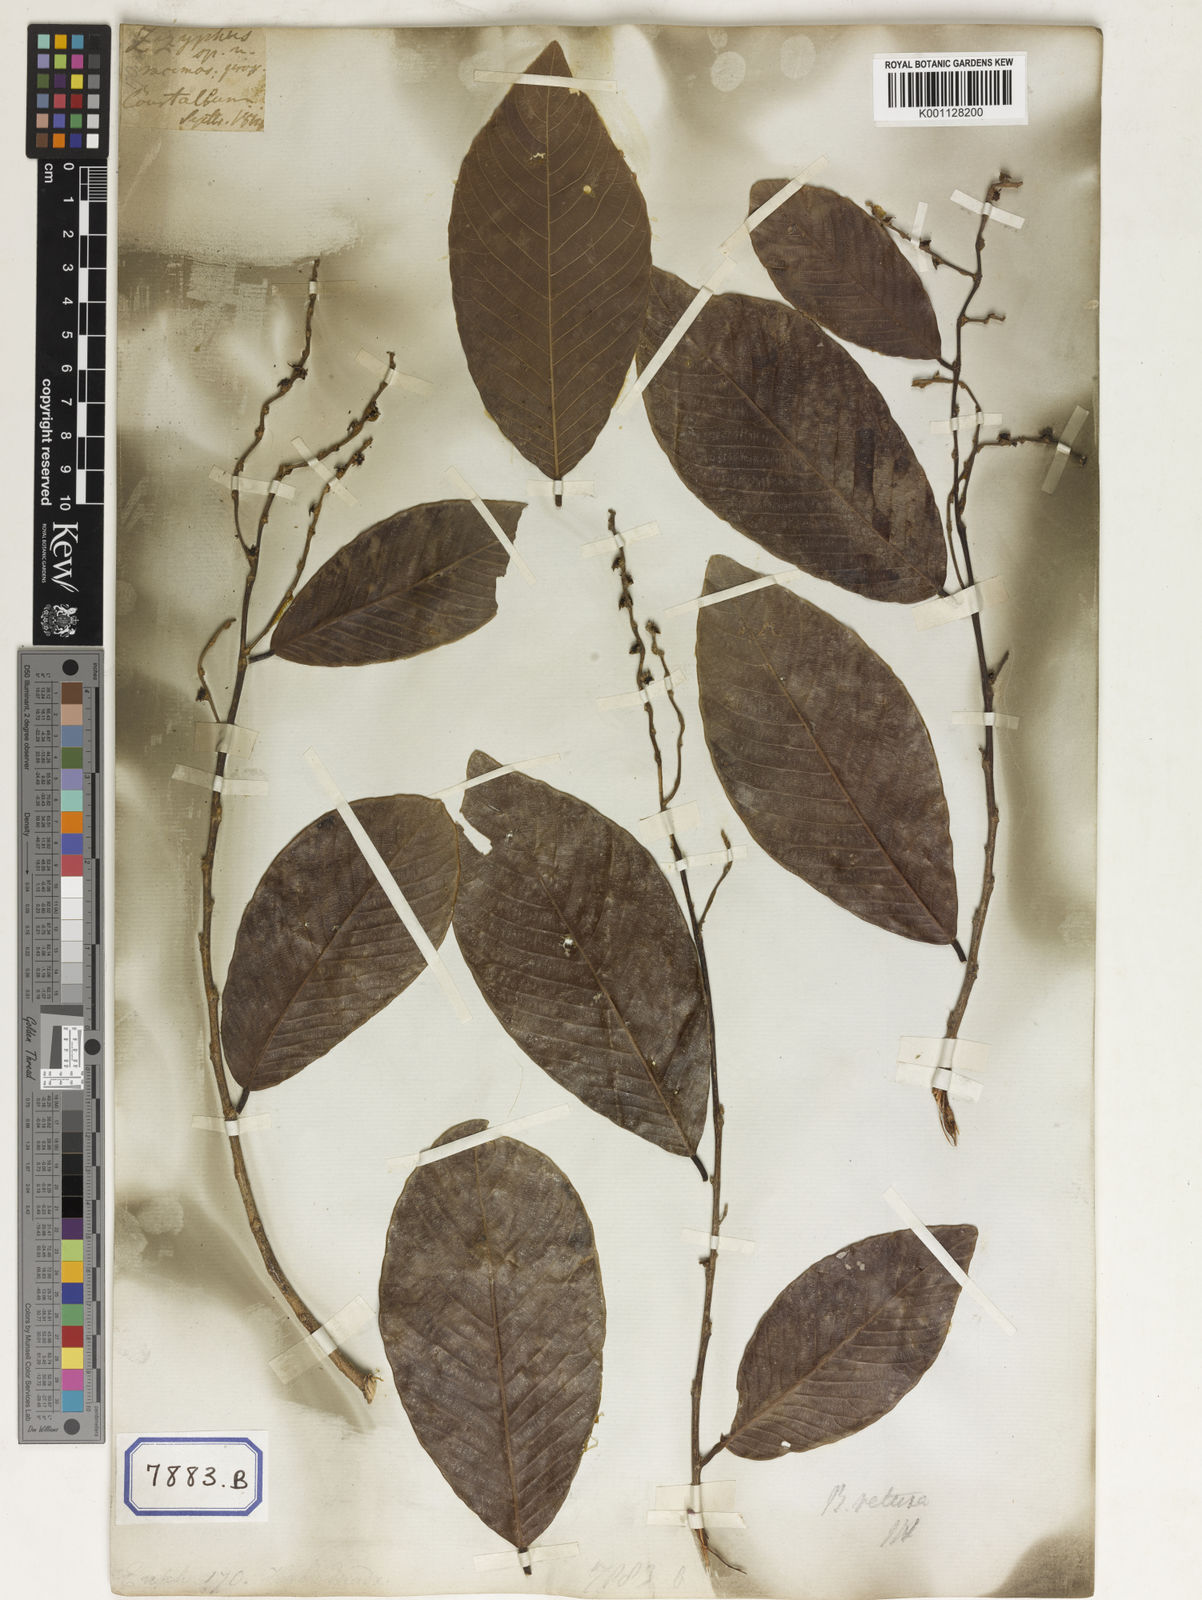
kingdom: Plantae
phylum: Tracheophyta
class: Magnoliopsida
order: Malpighiales
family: Euphorbiaceae
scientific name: Euphorbiaceae
